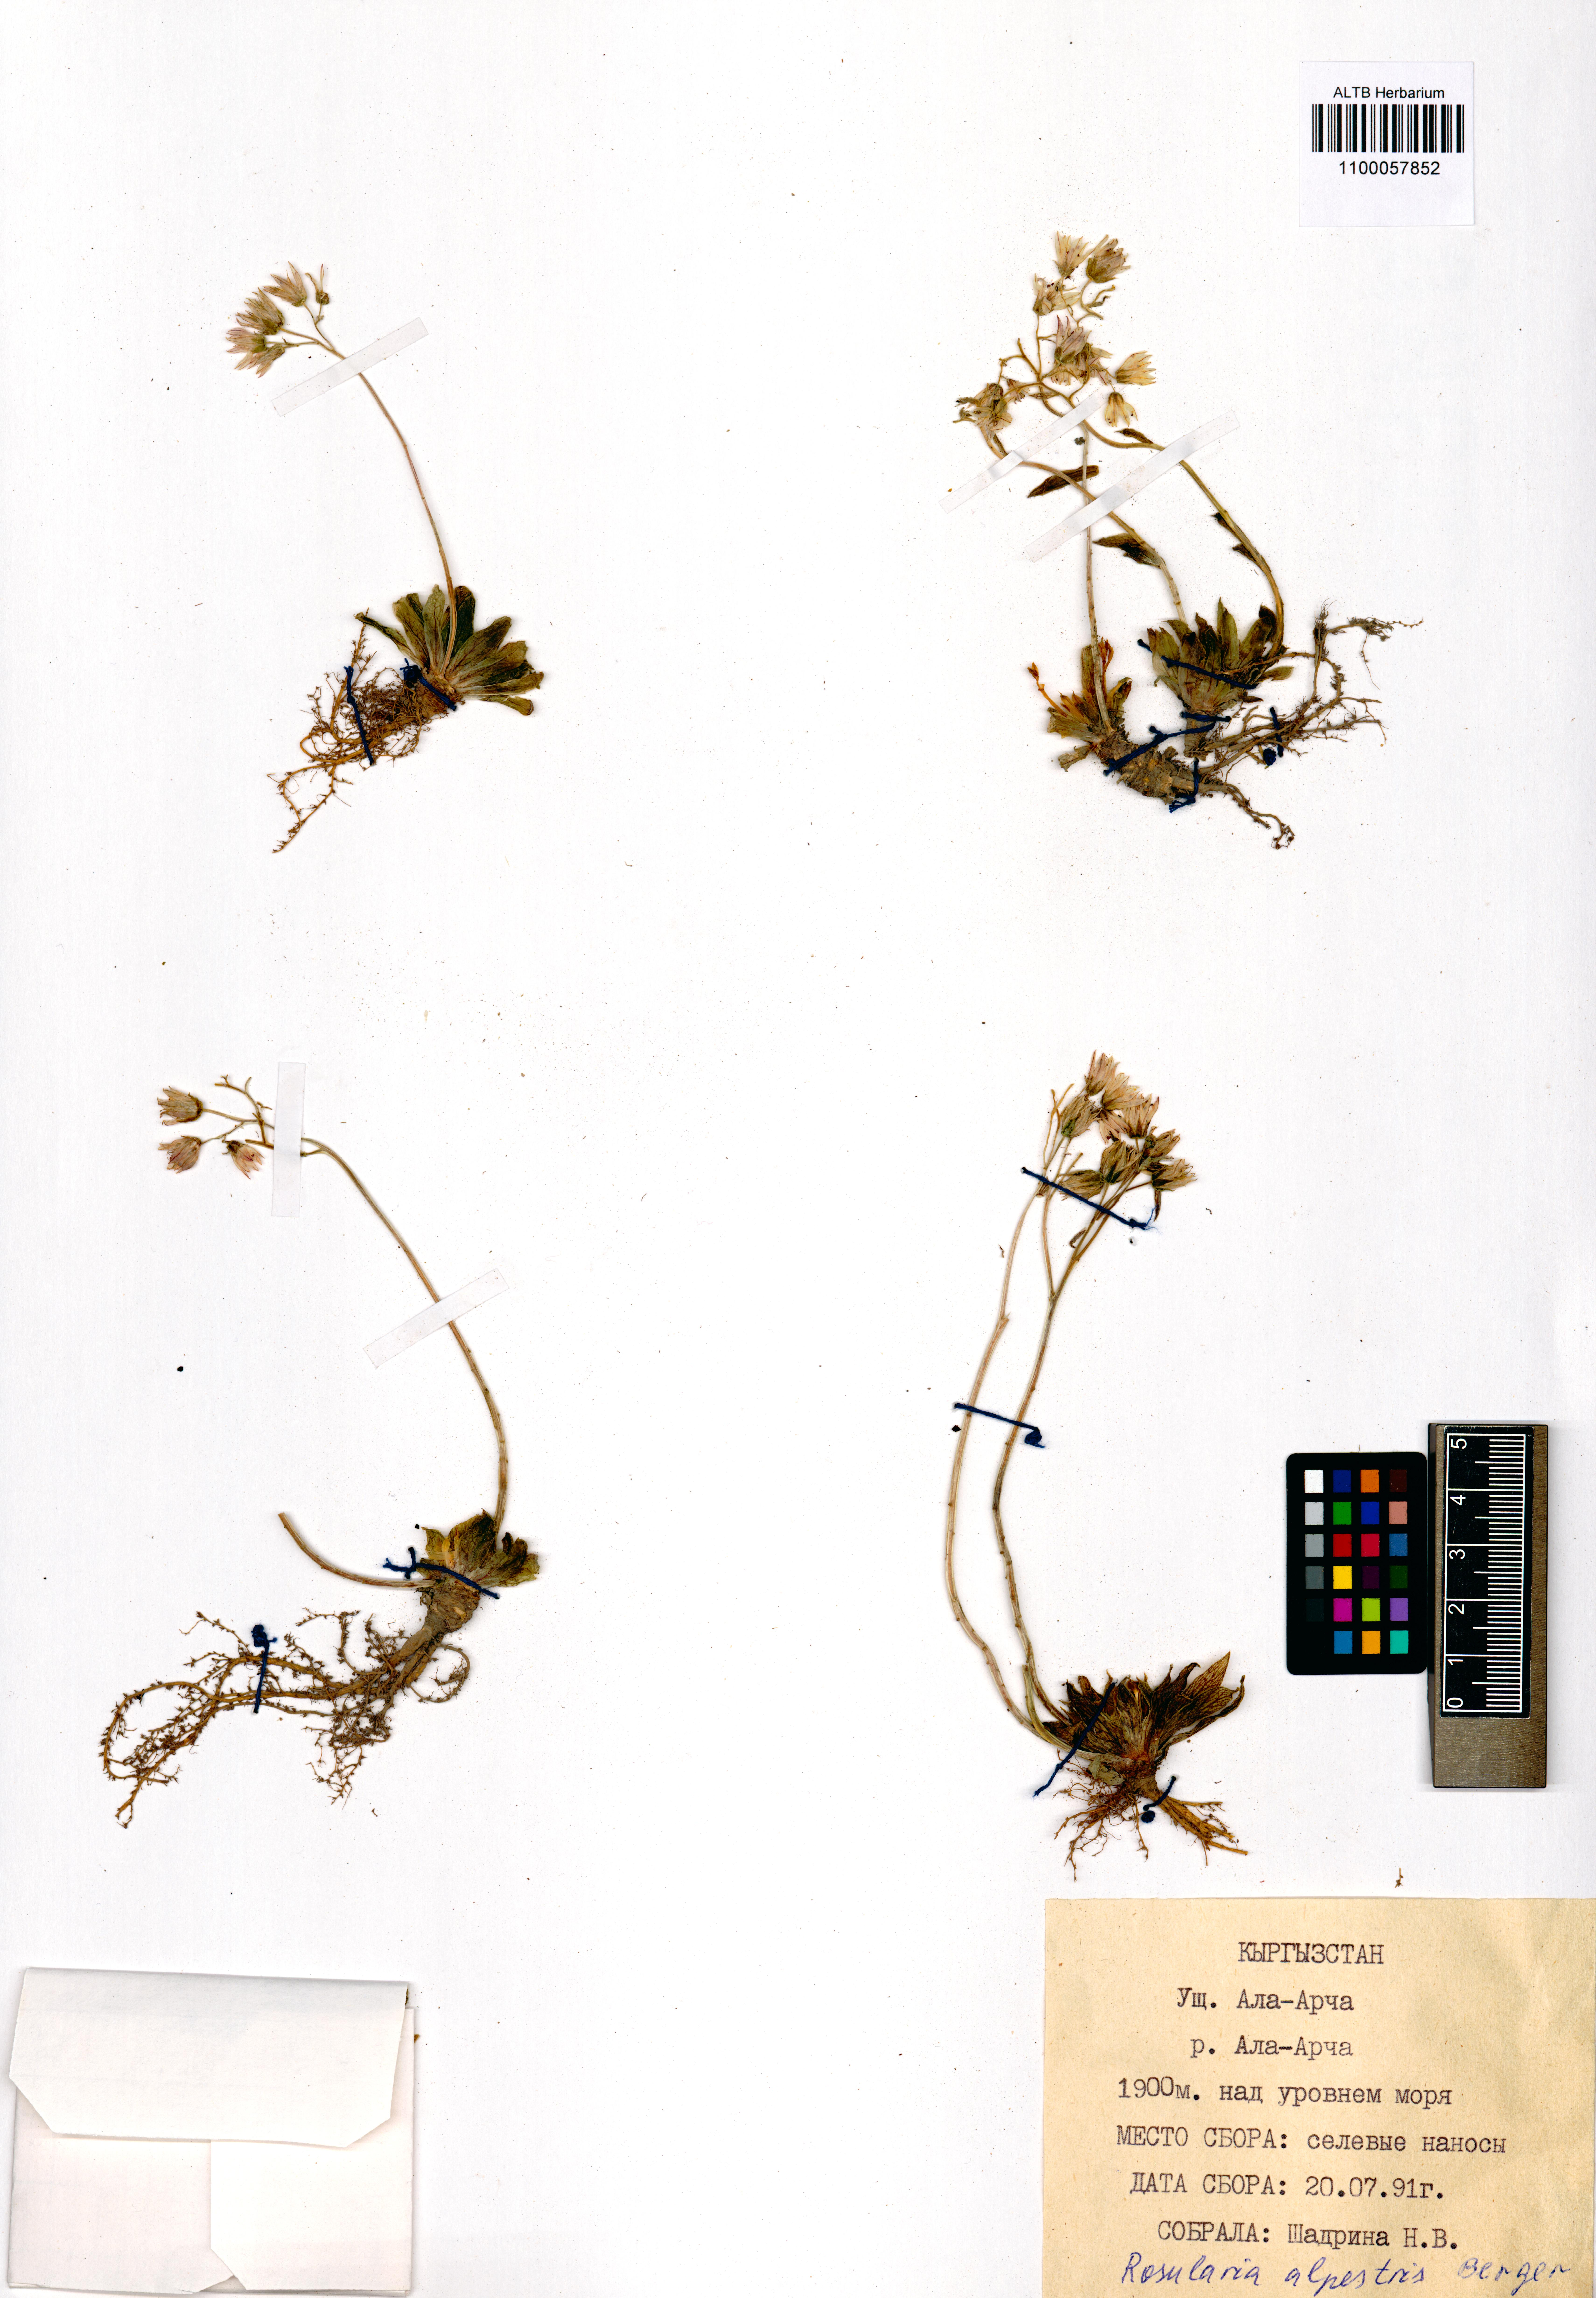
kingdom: Plantae
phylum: Tracheophyta
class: Magnoliopsida
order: Saxifragales
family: Crassulaceae
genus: Rosularia
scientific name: Rosularia alpestris
